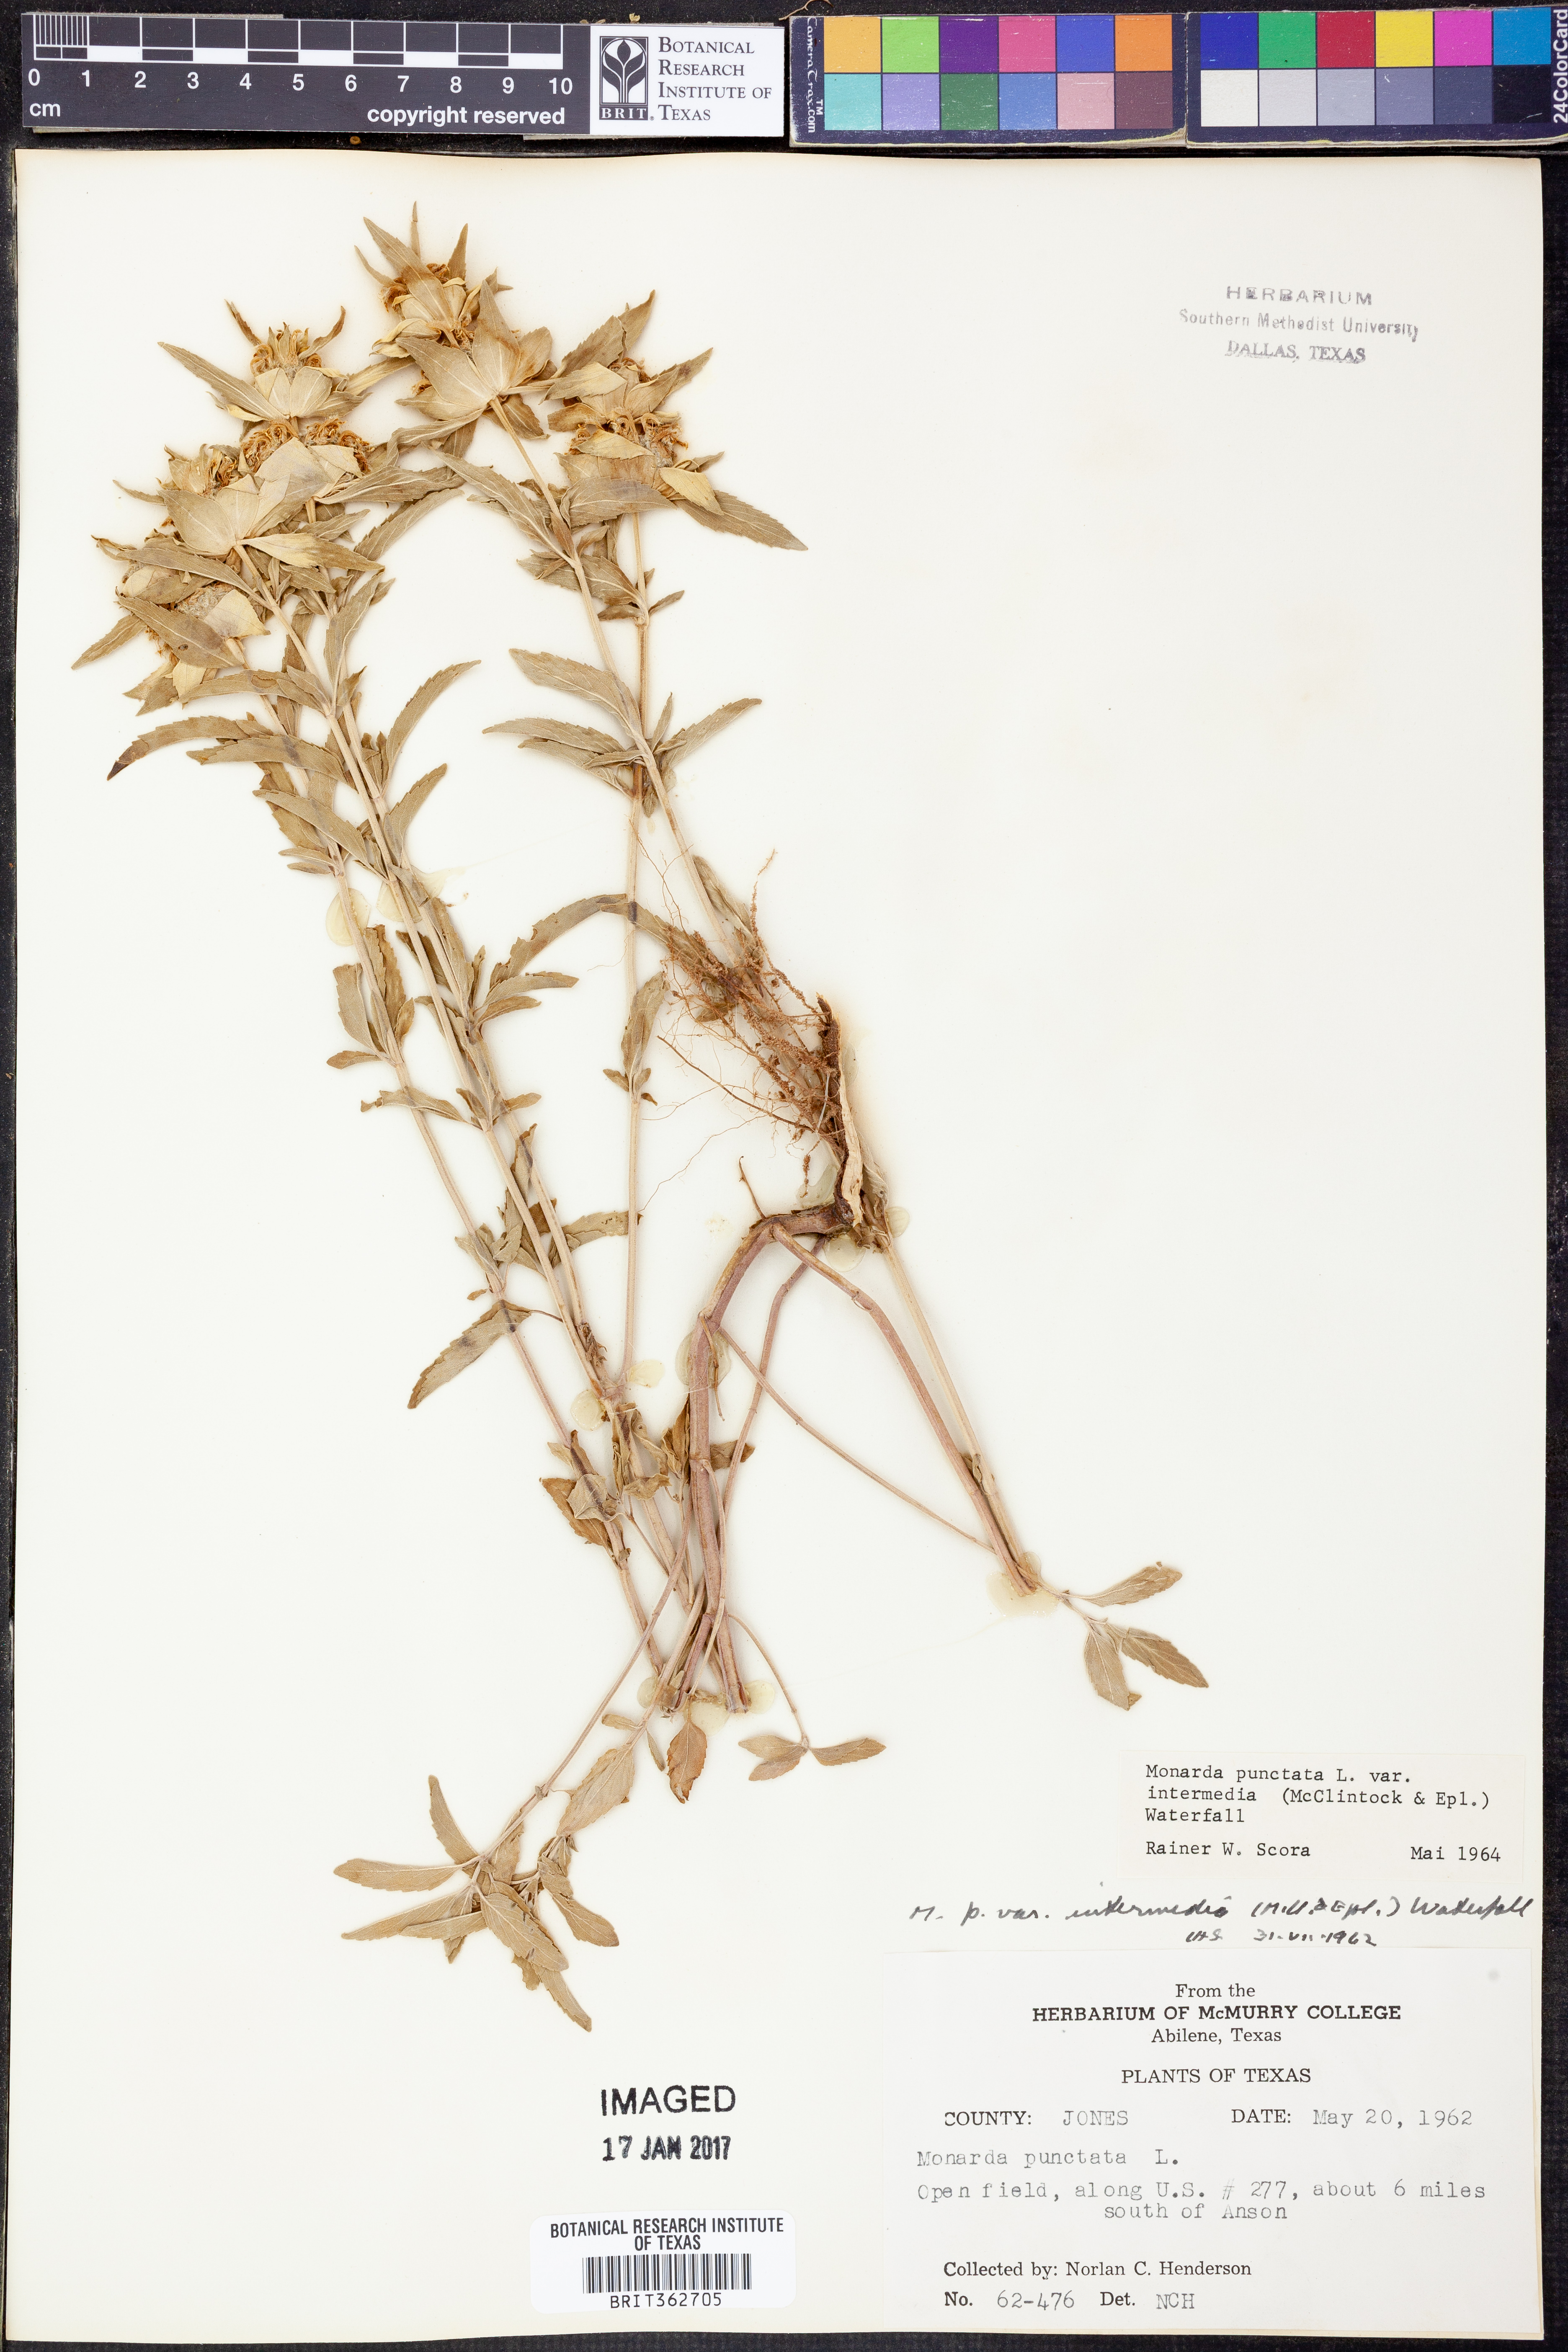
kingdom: Plantae
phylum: Tracheophyta
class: Magnoliopsida
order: Lamiales
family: Lamiaceae
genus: Monarda
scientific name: Monarda punctata
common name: Dotted monarda
